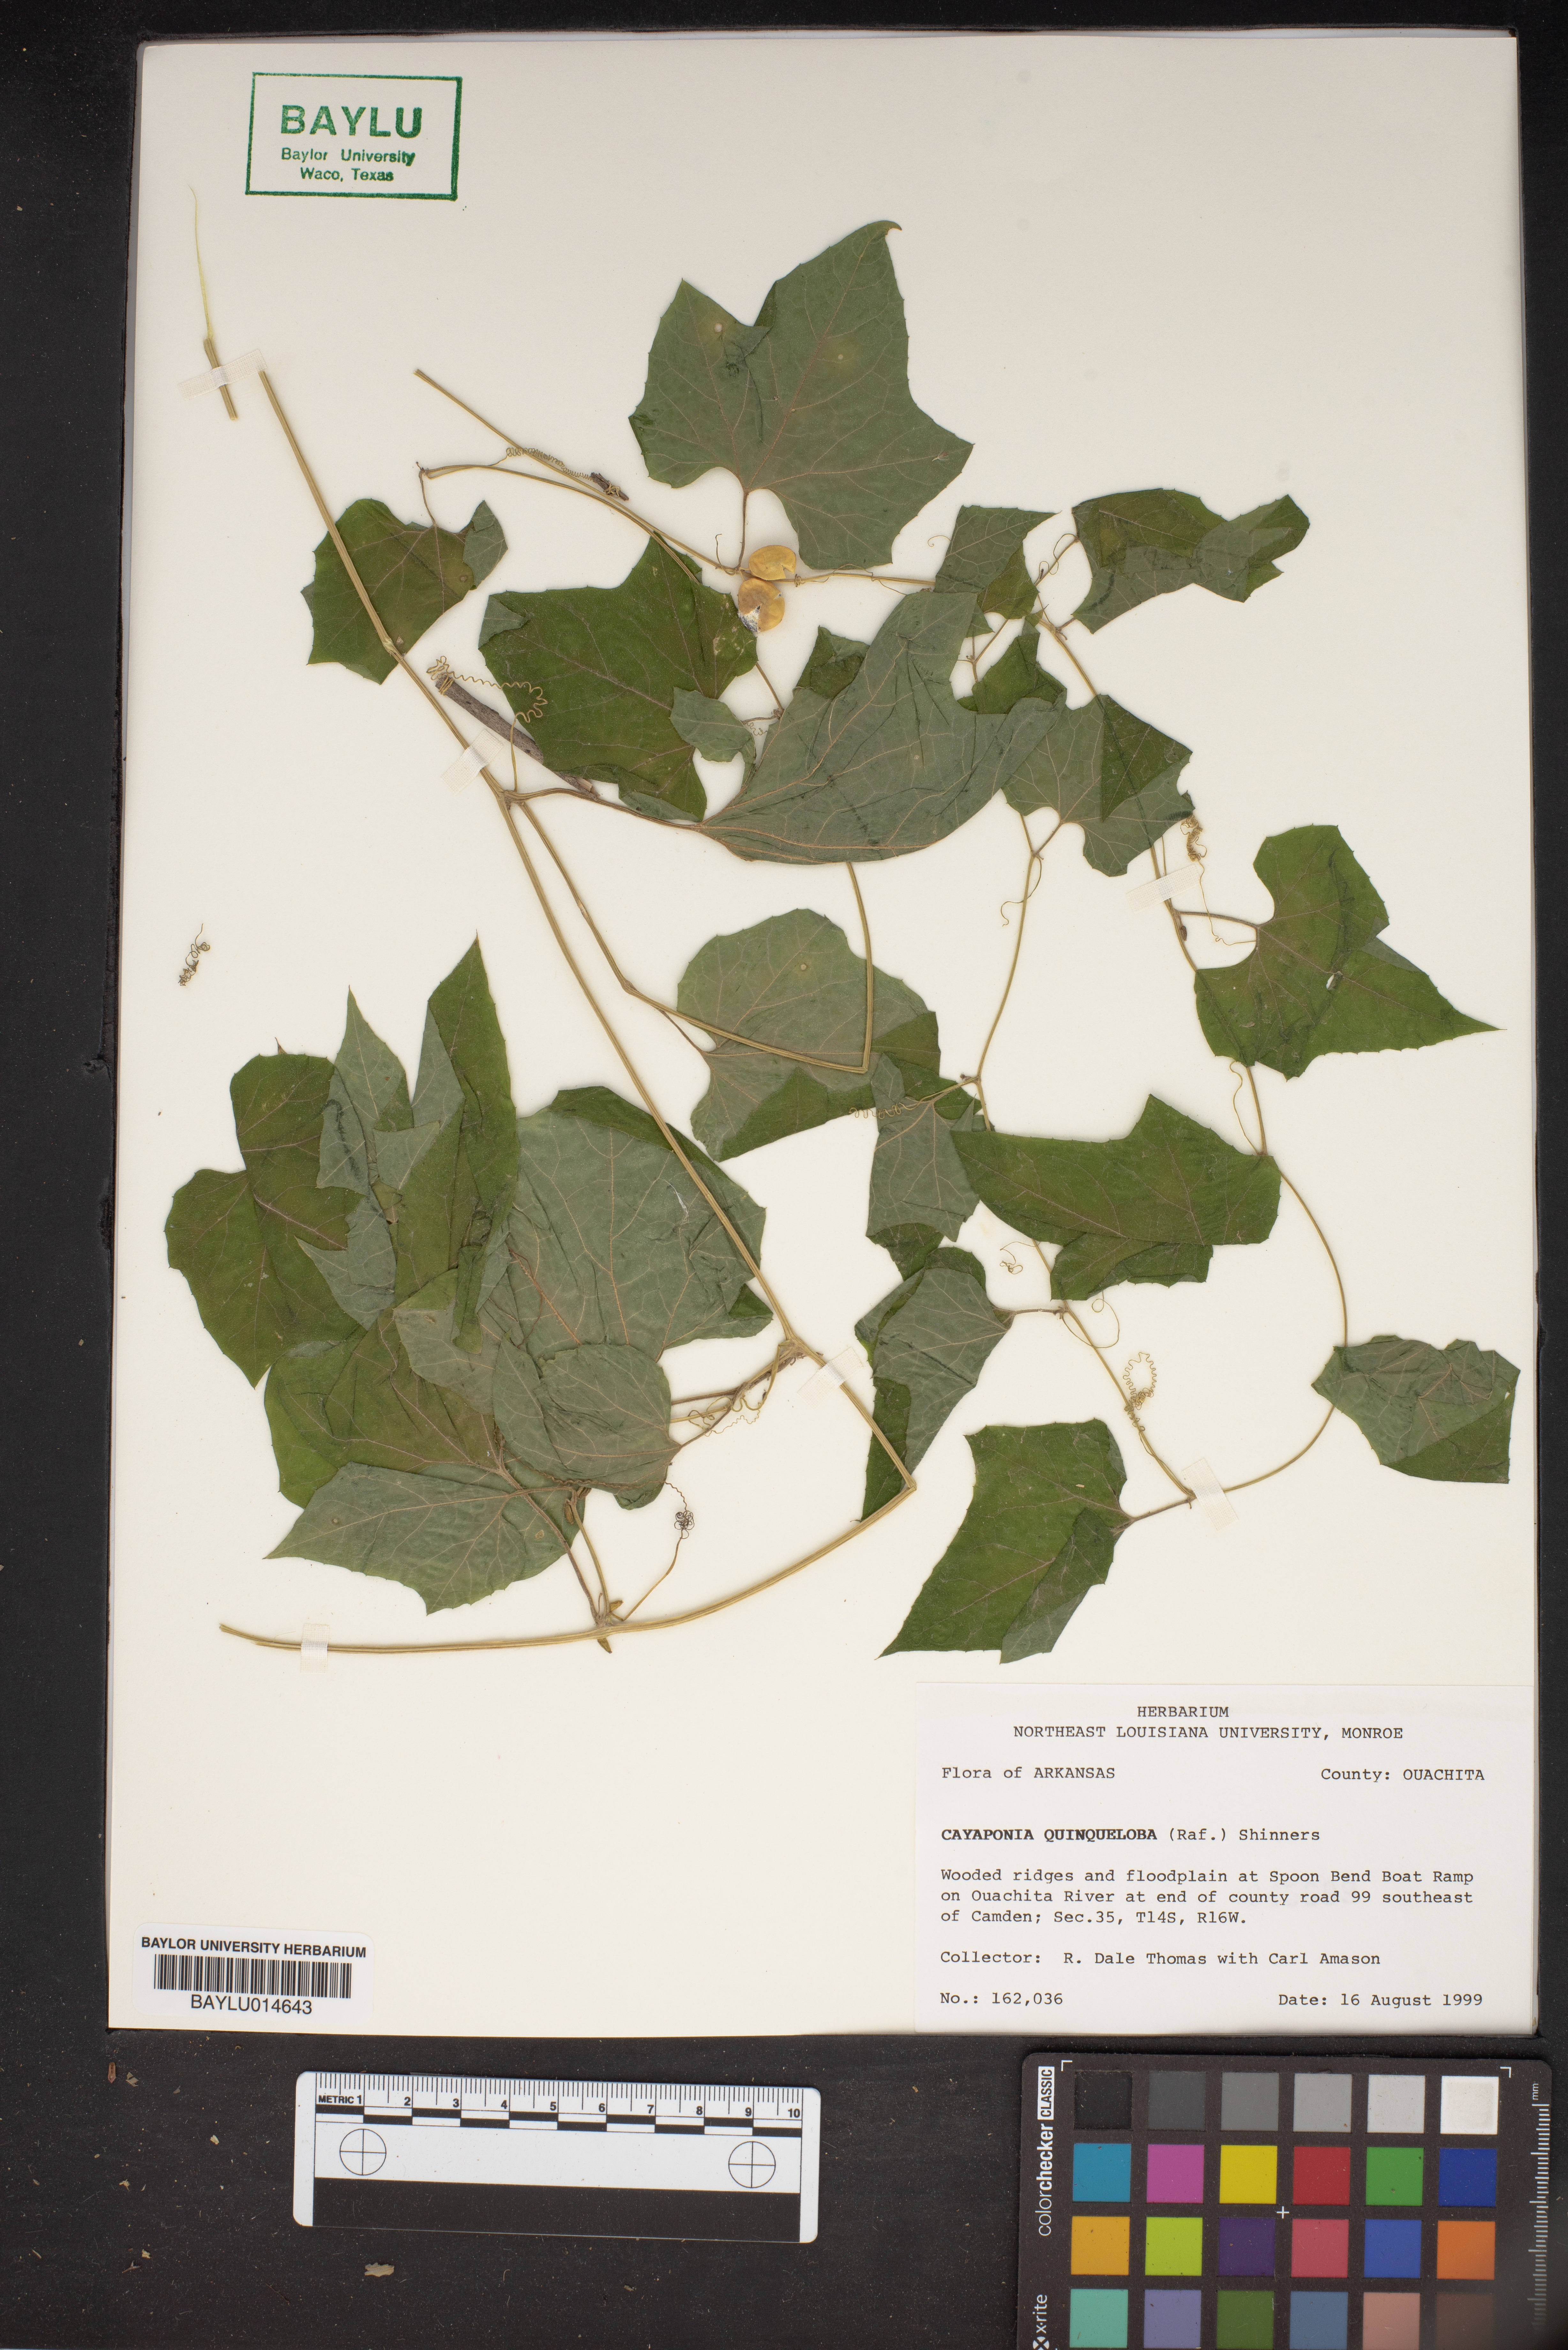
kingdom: Plantae
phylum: Tracheophyta
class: Magnoliopsida
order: Cucurbitales
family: Cucurbitaceae
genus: Cayaponia
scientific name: Cayaponia quinqueloba
